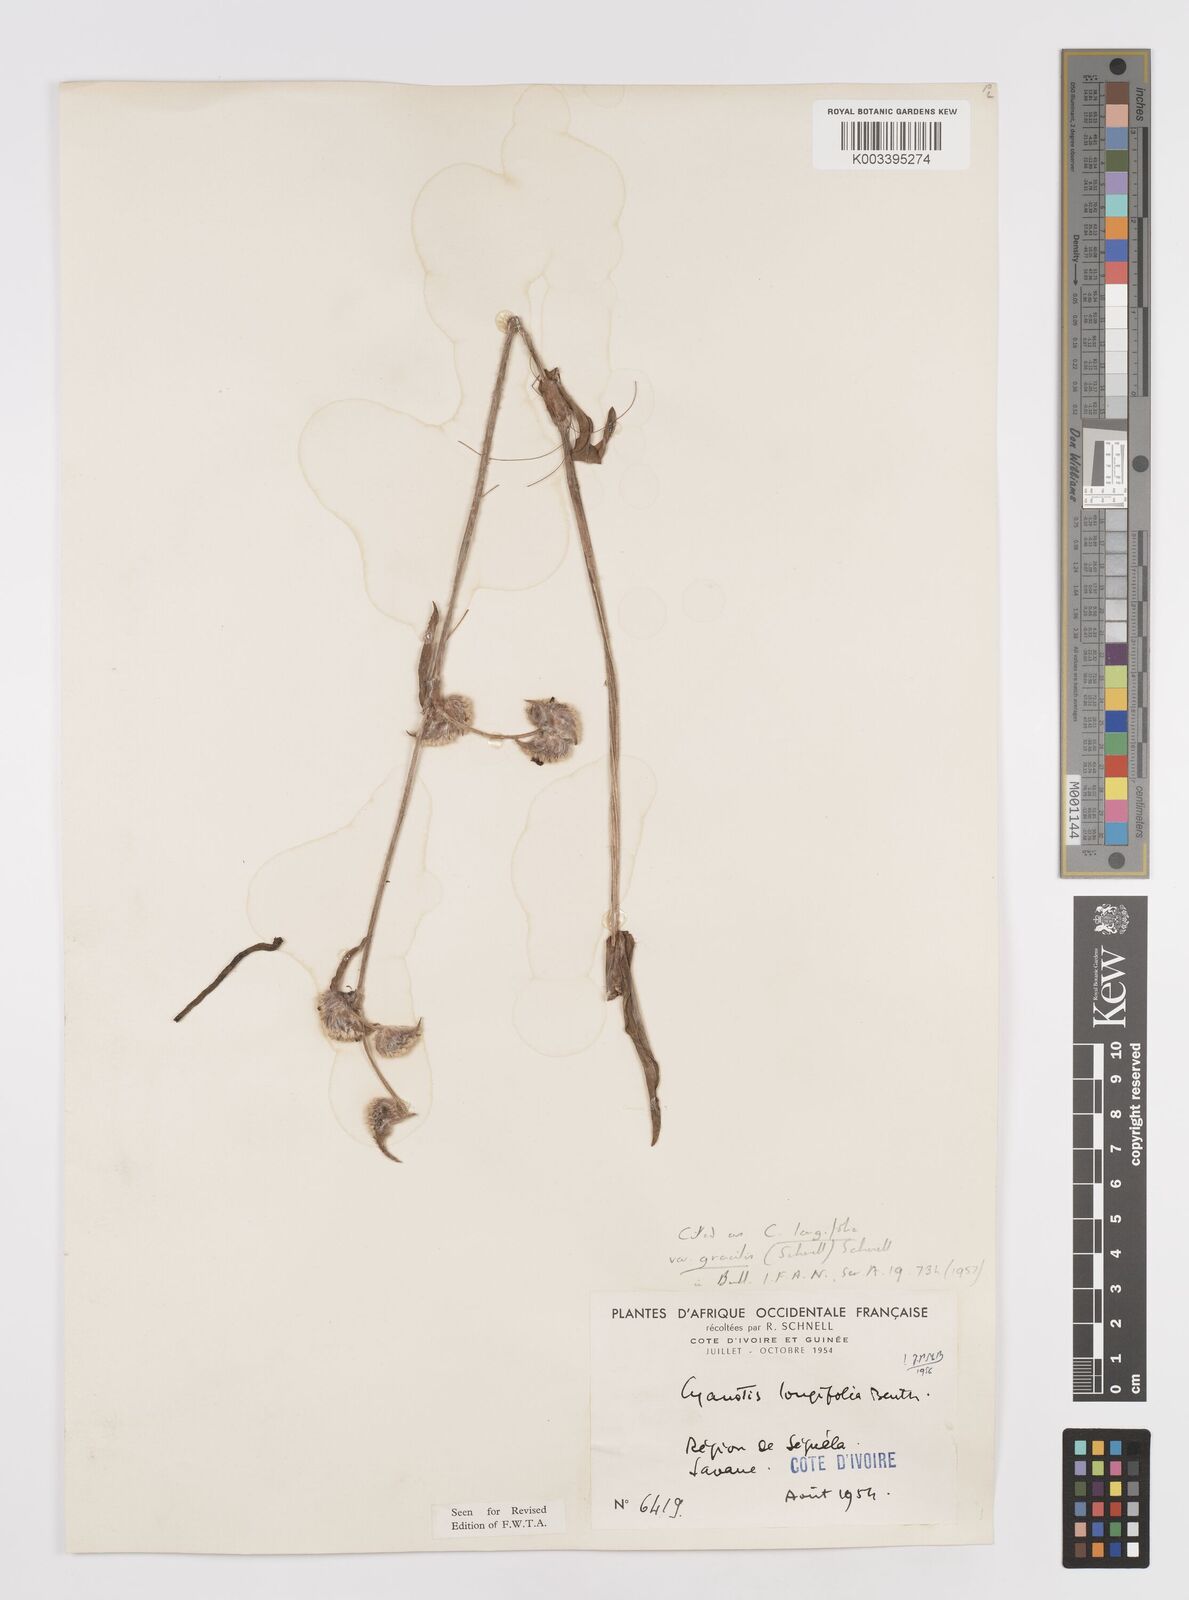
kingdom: Plantae
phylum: Tracheophyta
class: Liliopsida
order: Commelinales
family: Commelinaceae
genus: Cyanotis
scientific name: Cyanotis longifolia
